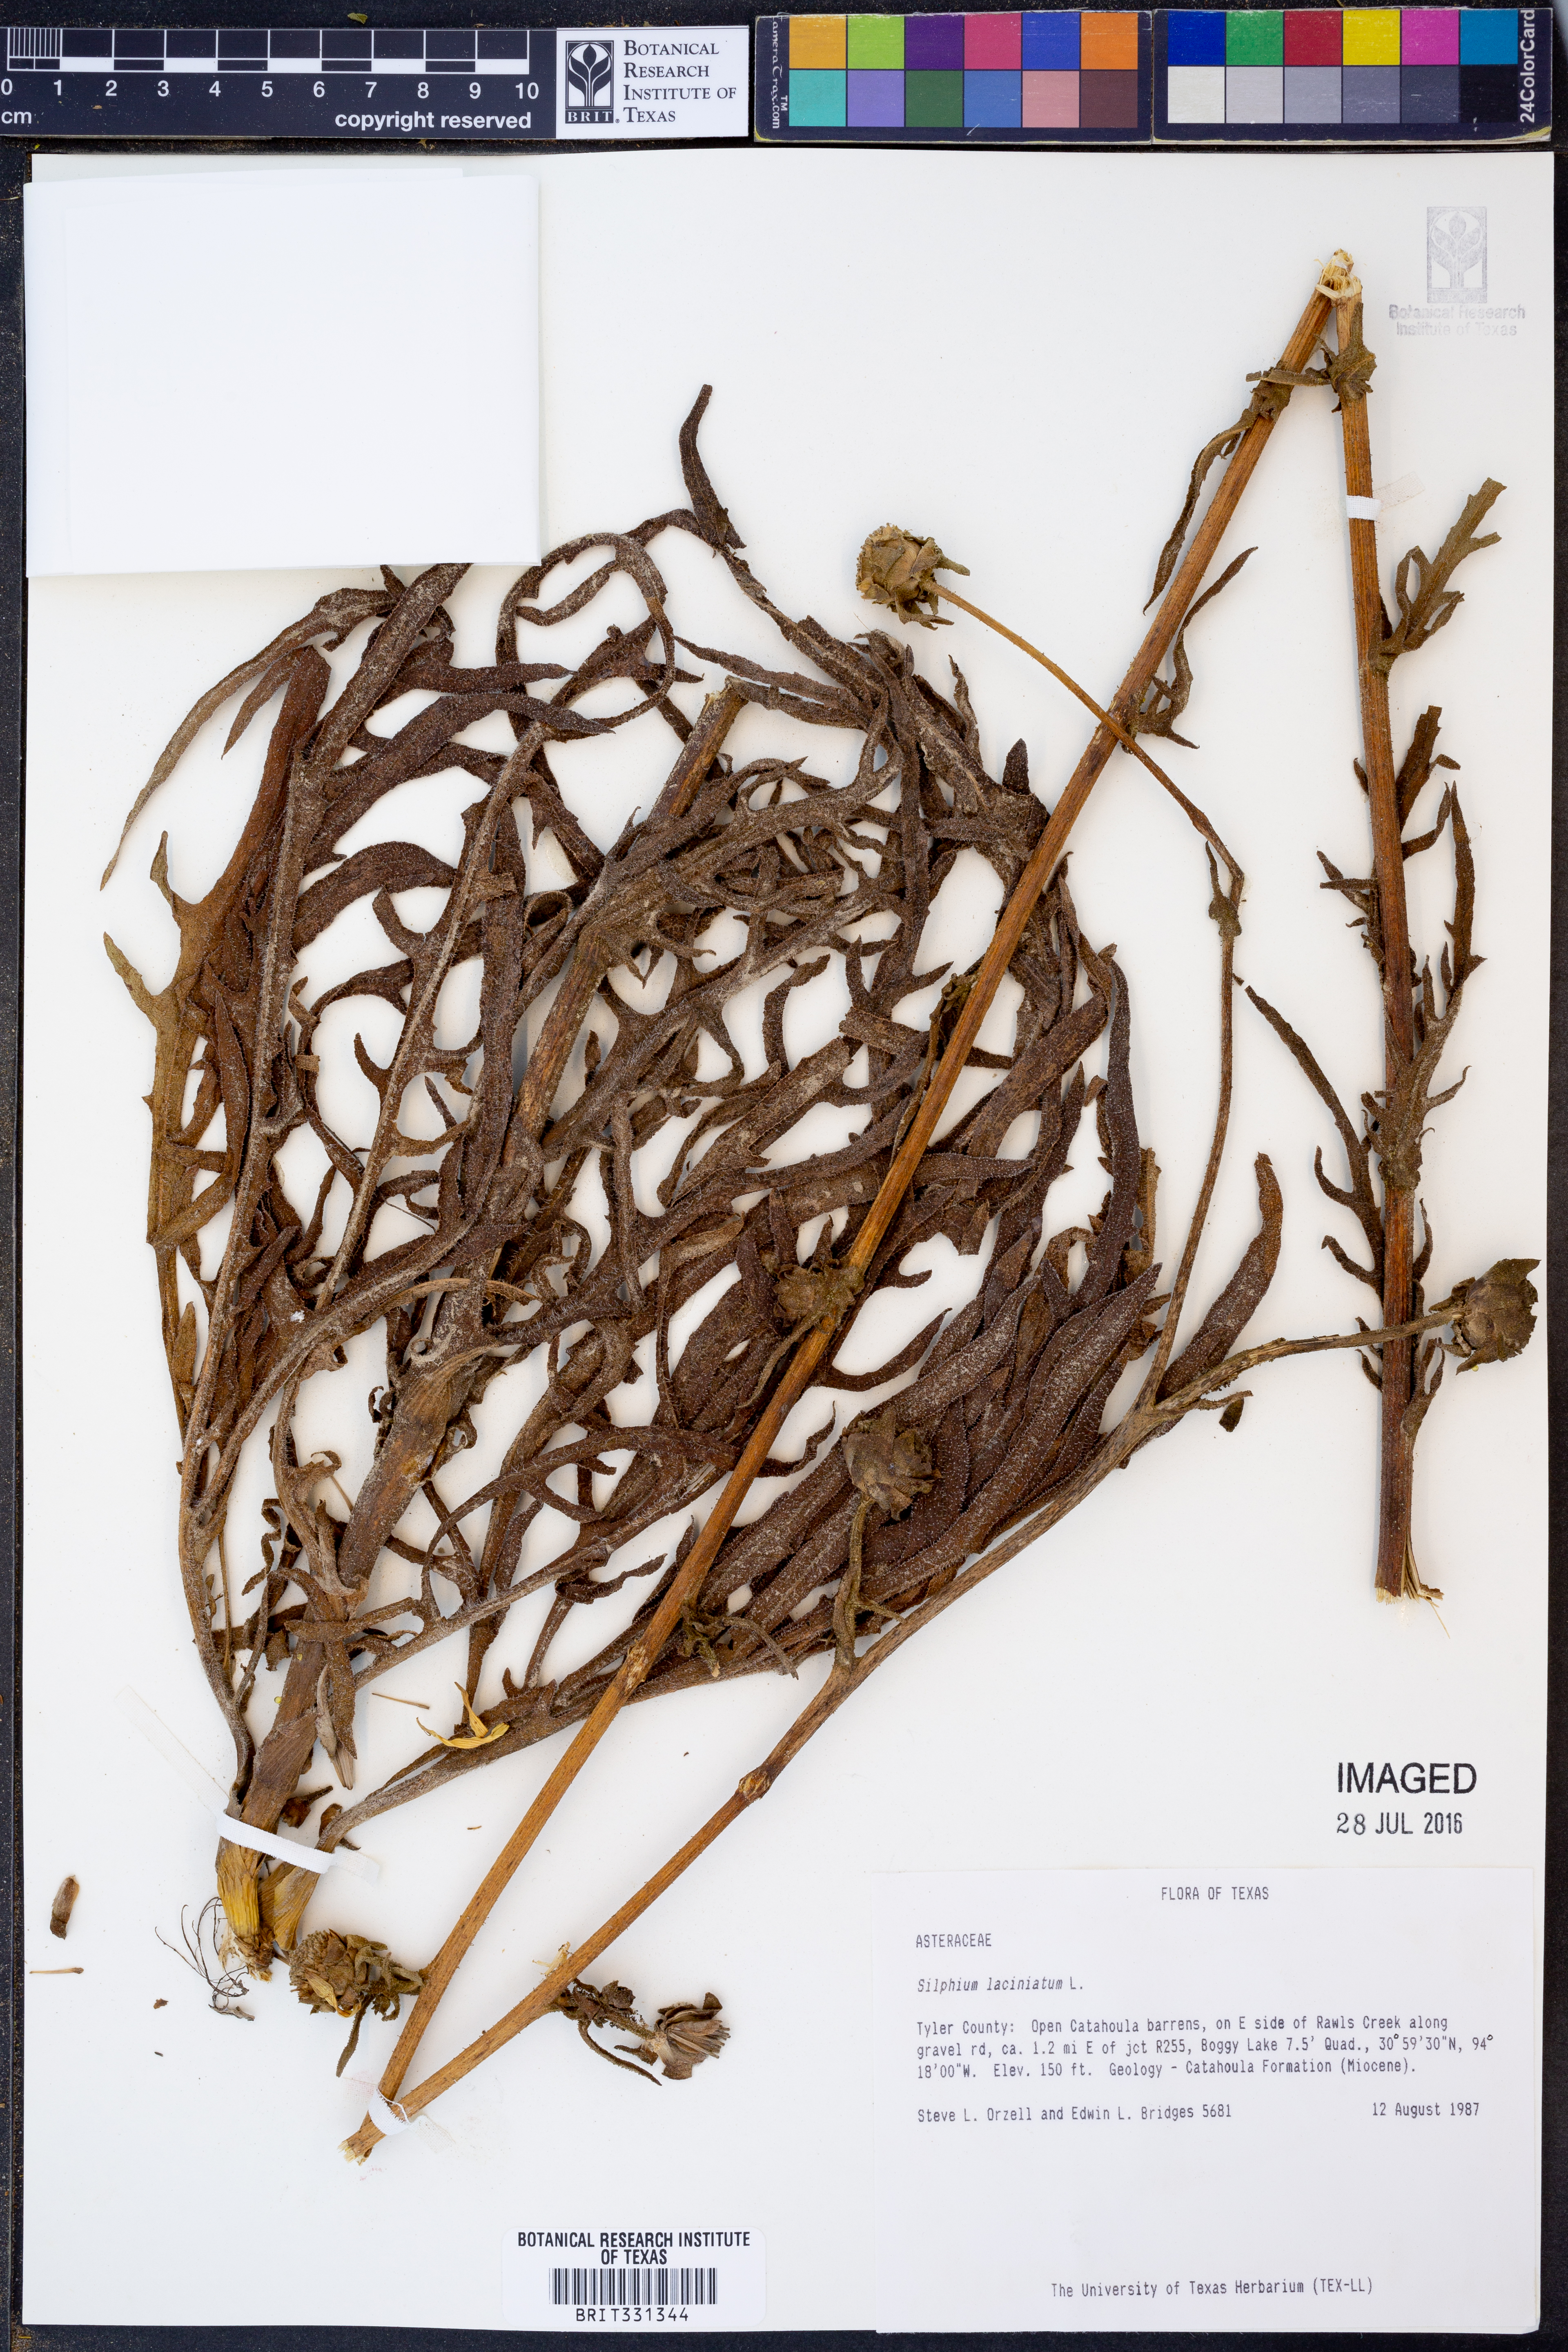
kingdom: Plantae
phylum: Tracheophyta
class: Magnoliopsida
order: Asterales
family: Asteraceae
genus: Silphium
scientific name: Silphium laciniatum
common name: Polarplant
